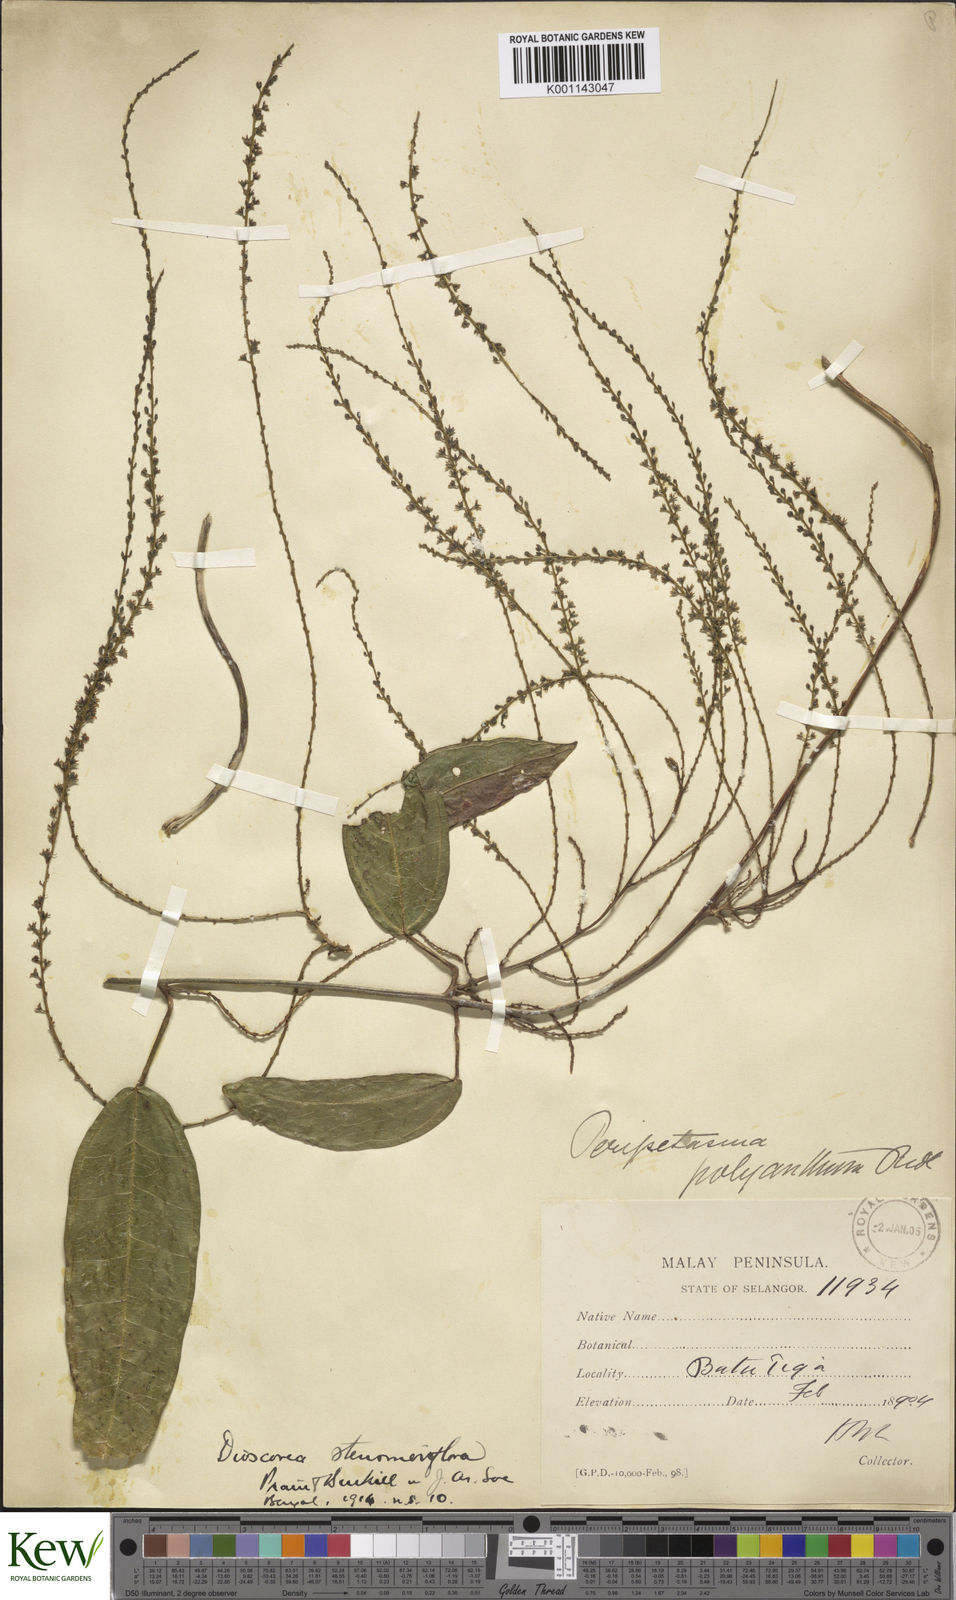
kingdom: Plantae
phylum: Tracheophyta
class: Liliopsida
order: Dioscoreales
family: Dioscoreaceae
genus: Dioscorea
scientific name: Dioscorea stenomeriflora
